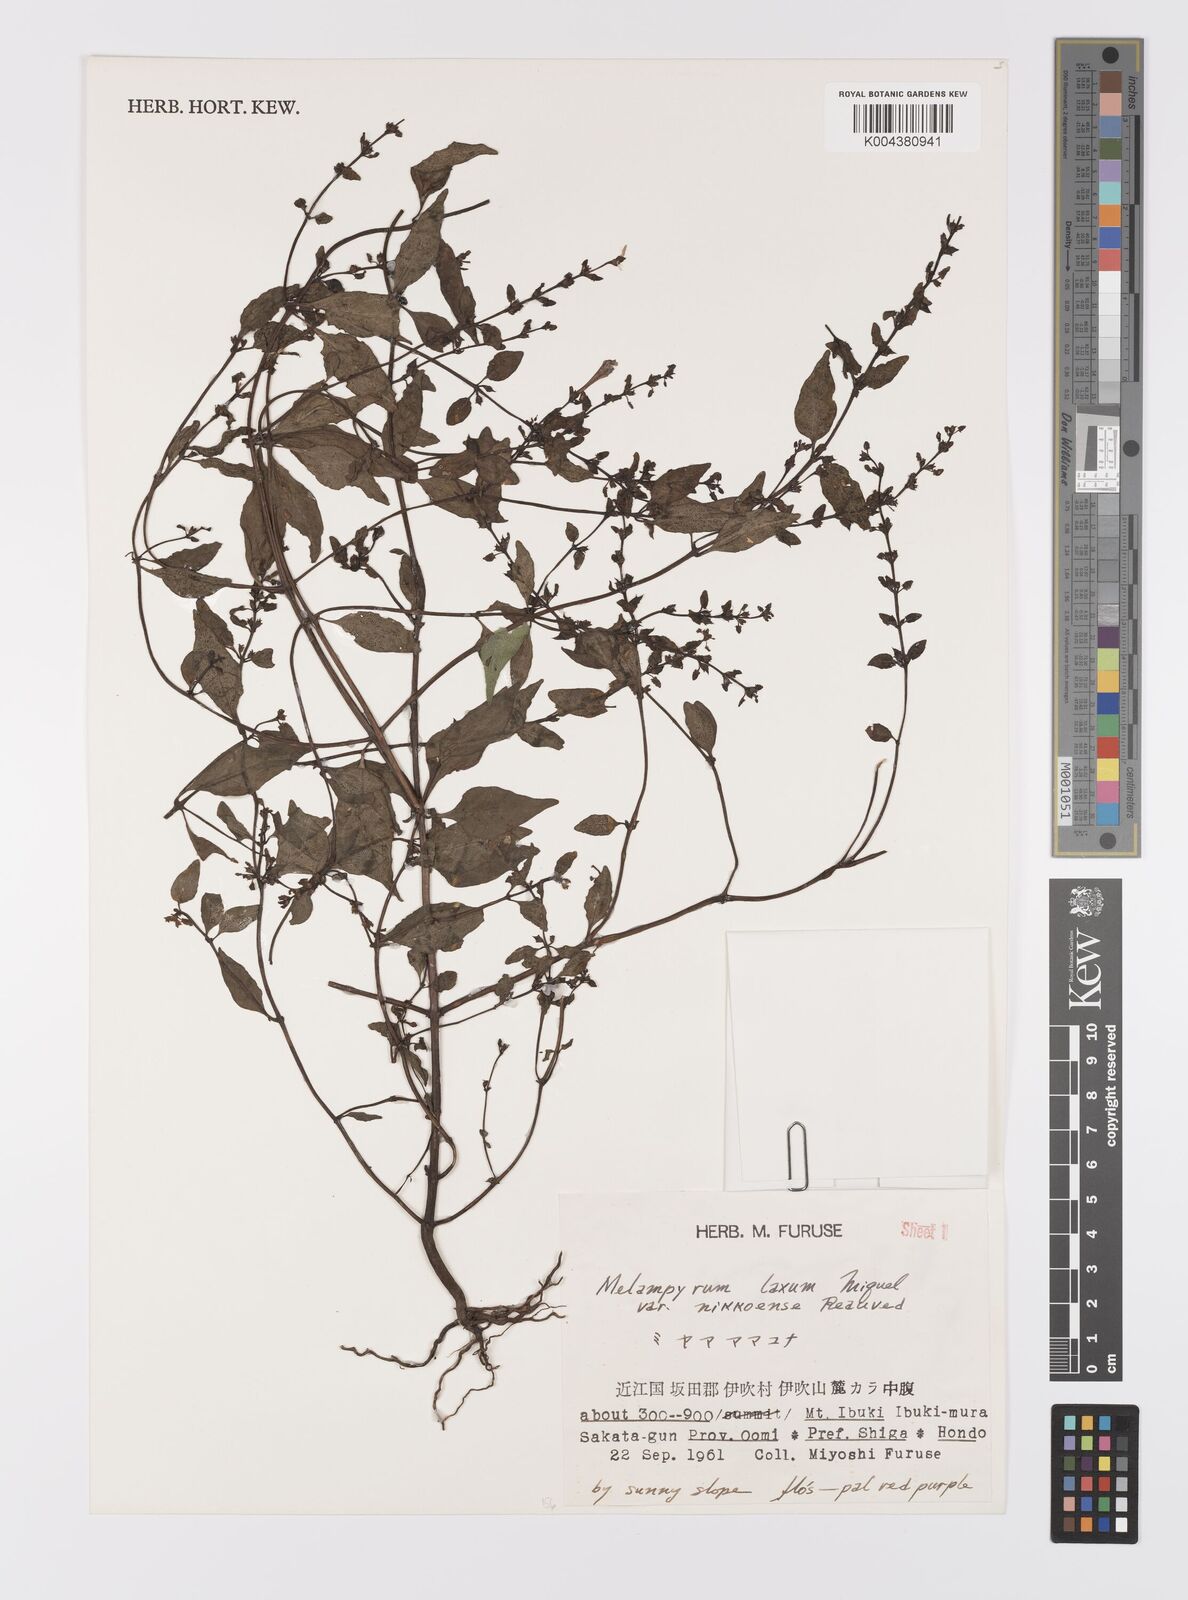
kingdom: Plantae
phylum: Tracheophyta
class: Magnoliopsida
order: Lamiales
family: Orobanchaceae
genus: Melampyrum
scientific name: Melampyrum laxum
